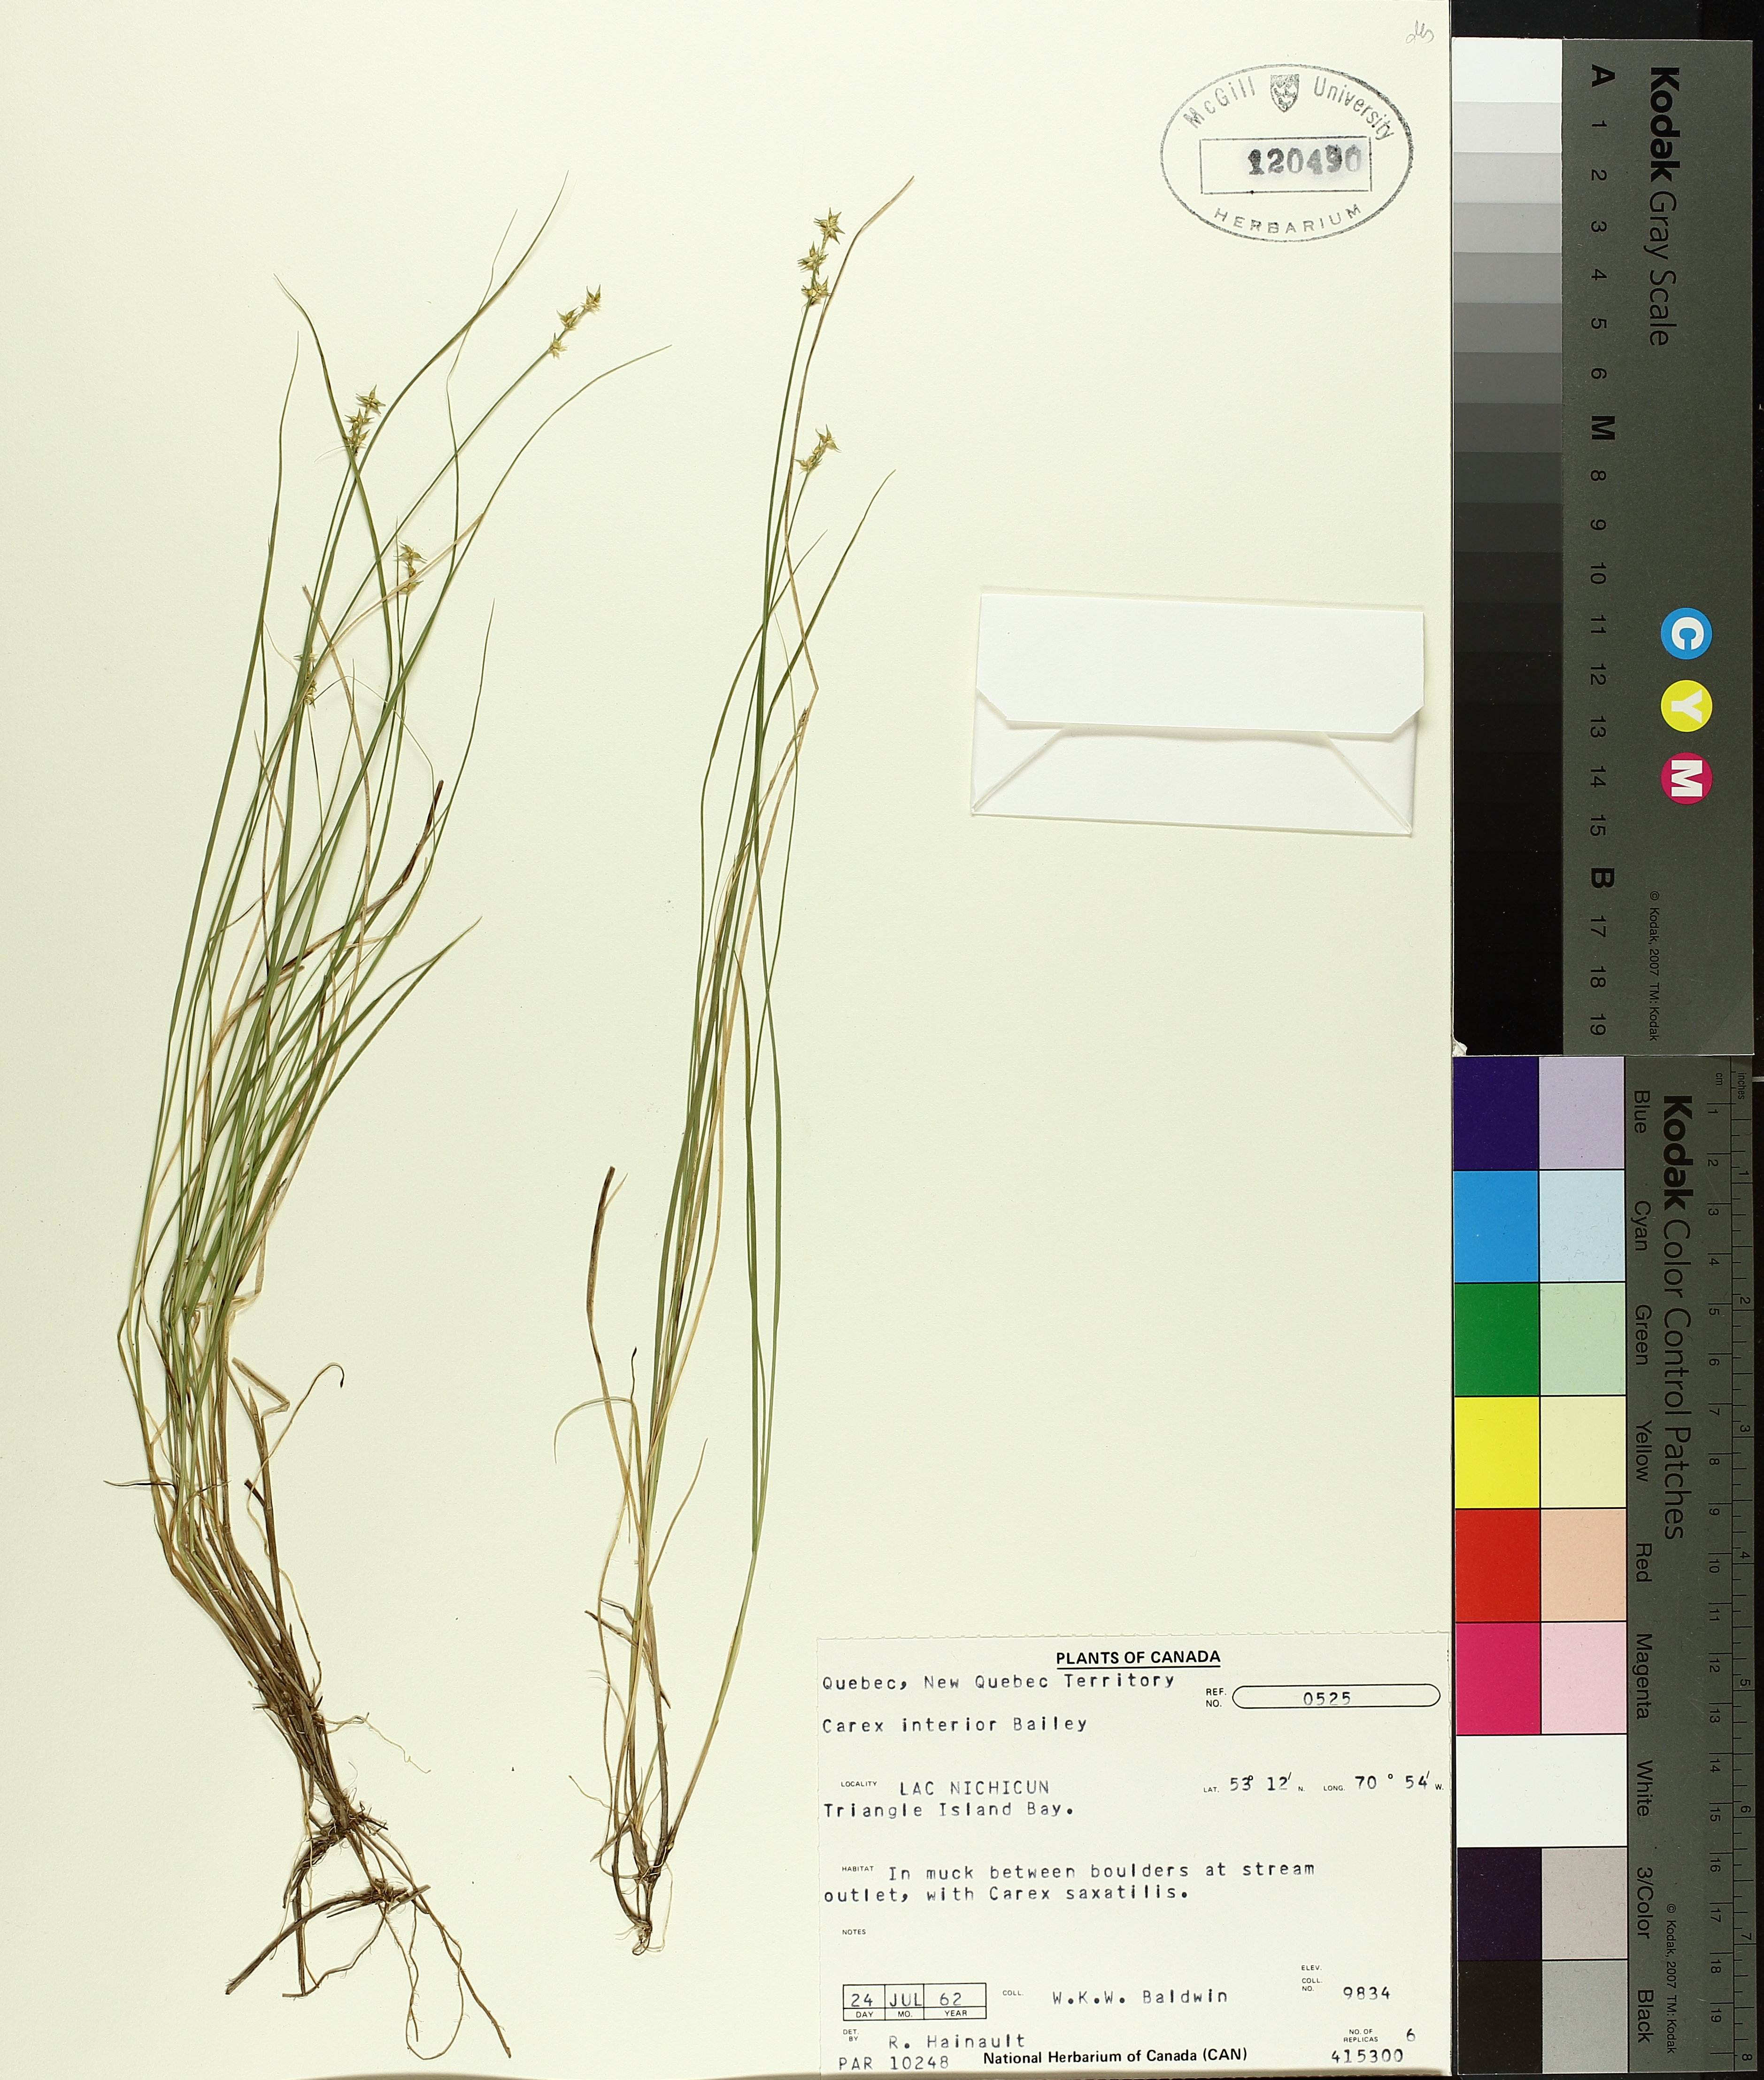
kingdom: Plantae
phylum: Tracheophyta
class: Liliopsida
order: Poales
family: Cyperaceae
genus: Carex
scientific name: Carex interior
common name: Inland sedge
